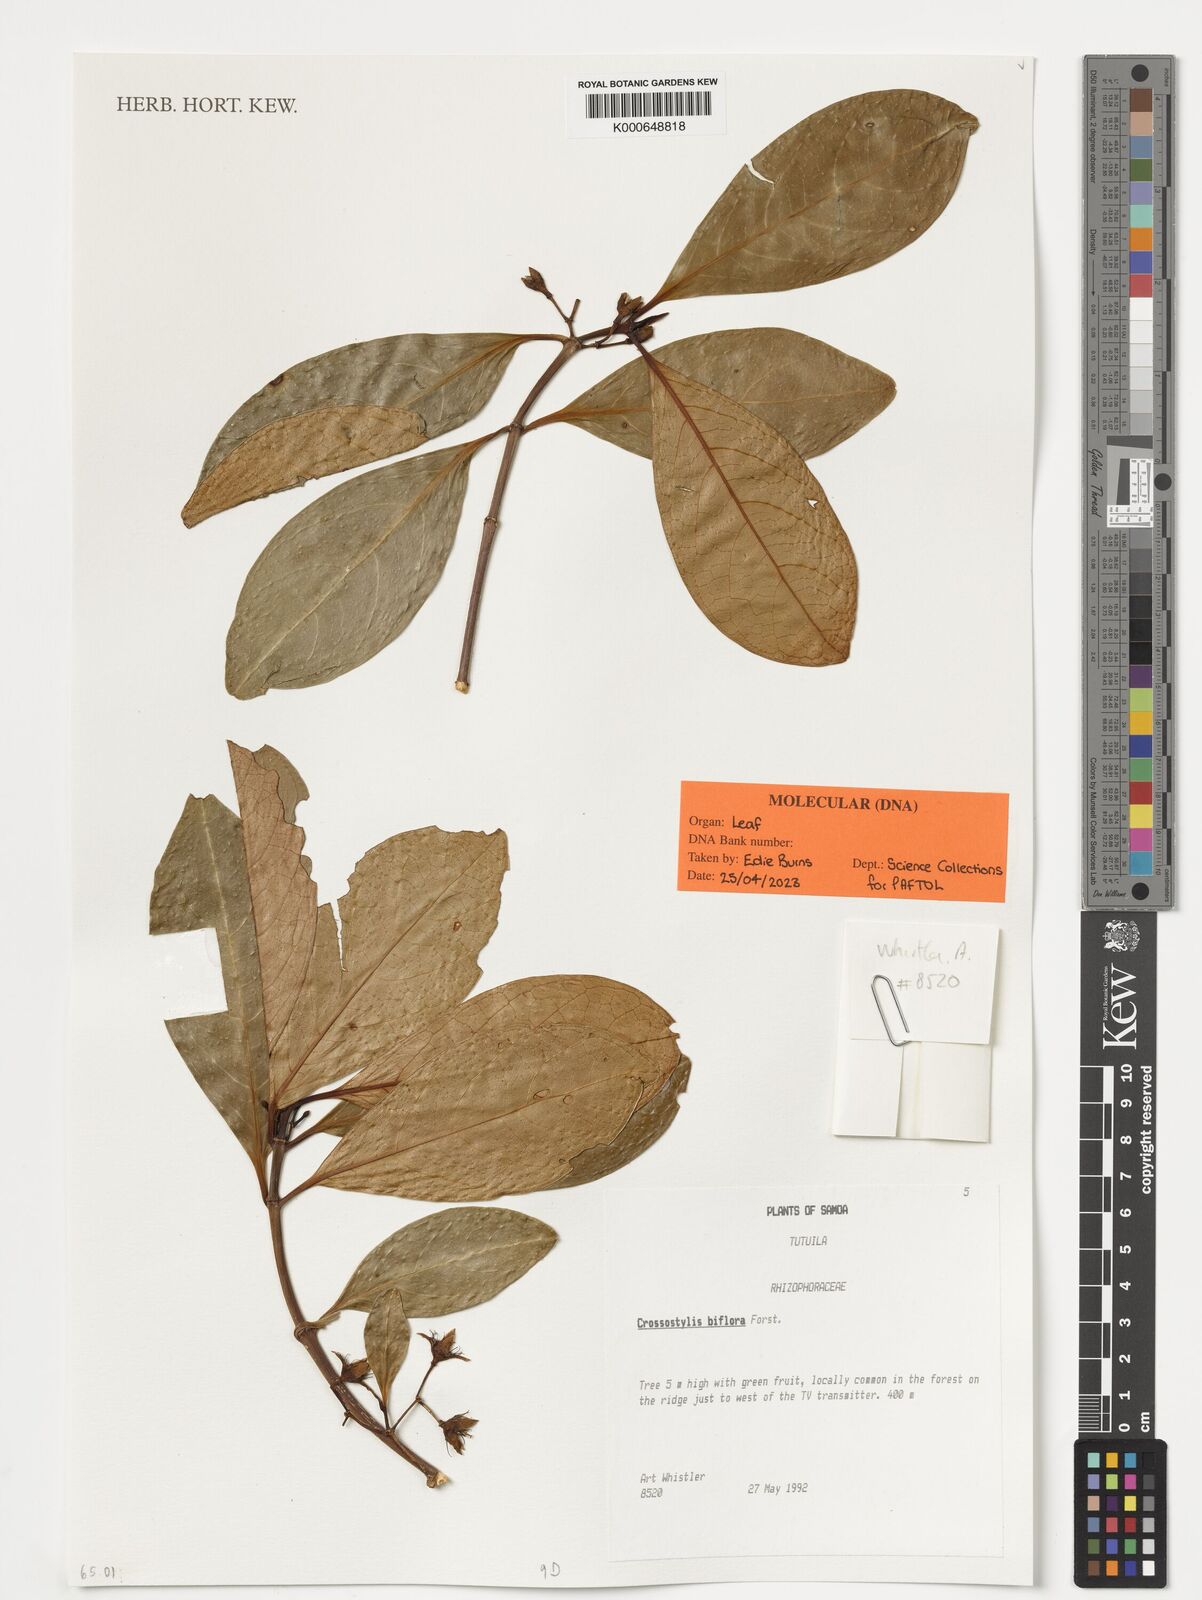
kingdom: Plantae
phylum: Tracheophyta
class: Magnoliopsida
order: Malpighiales
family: Rhizophoraceae
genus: Crossostylis
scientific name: Crossostylis biflora
